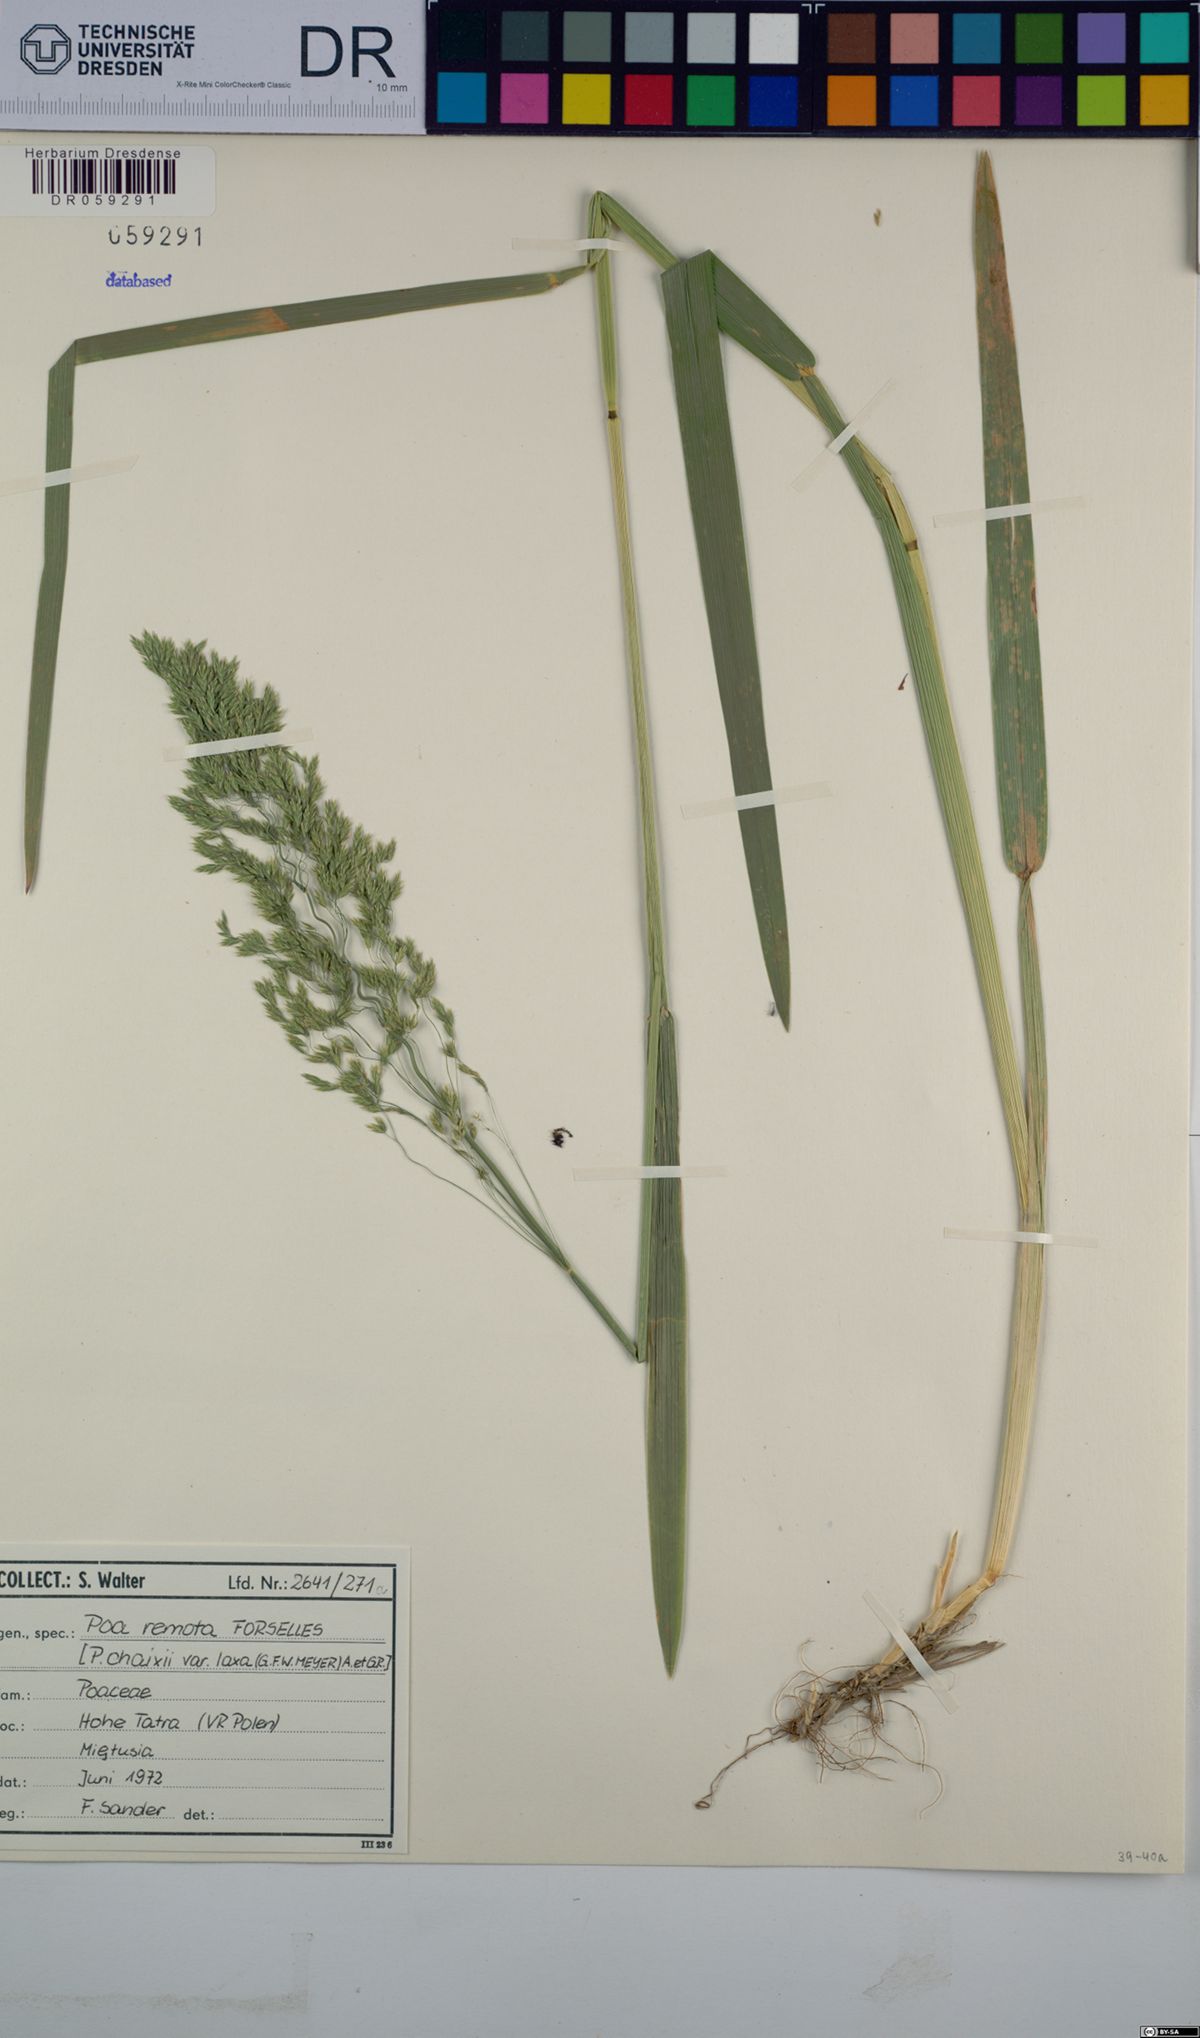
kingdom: Plantae
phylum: Tracheophyta
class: Liliopsida
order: Poales
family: Poaceae
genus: Poa
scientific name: Poa remota
